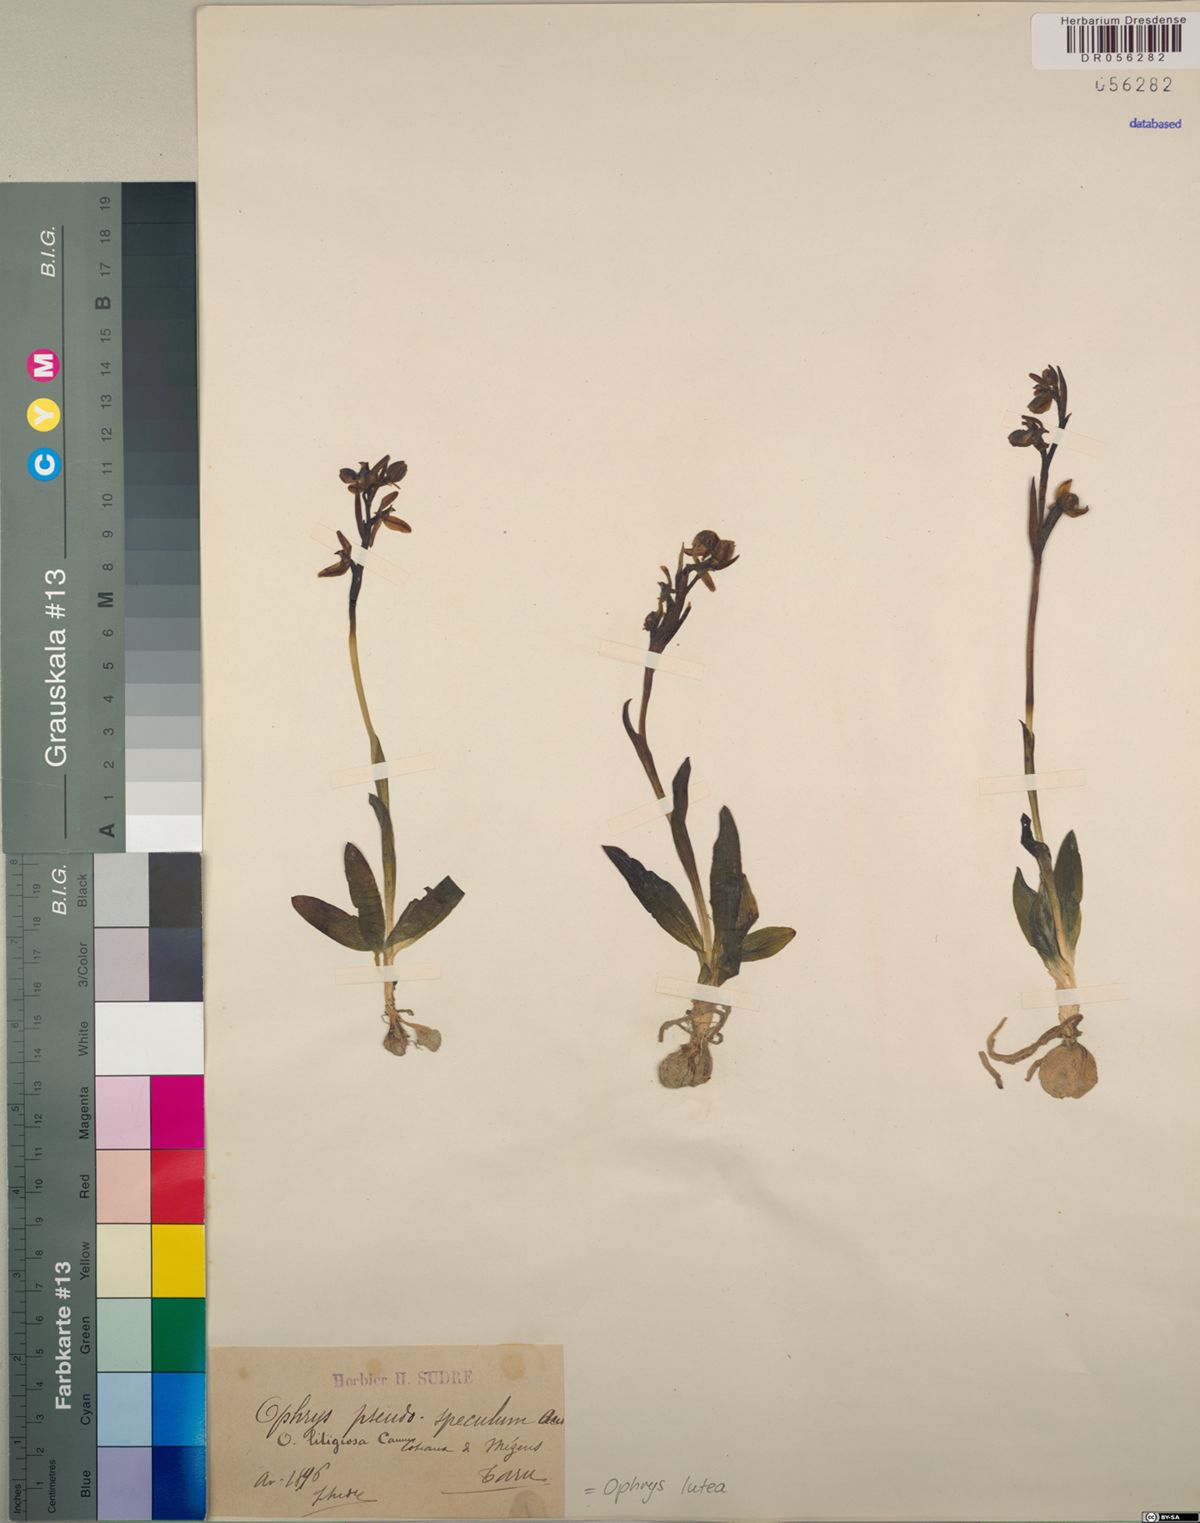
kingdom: Plantae
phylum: Tracheophyta
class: Liliopsida
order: Asparagales
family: Orchidaceae
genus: Ophrys
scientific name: Ophrys lutea
